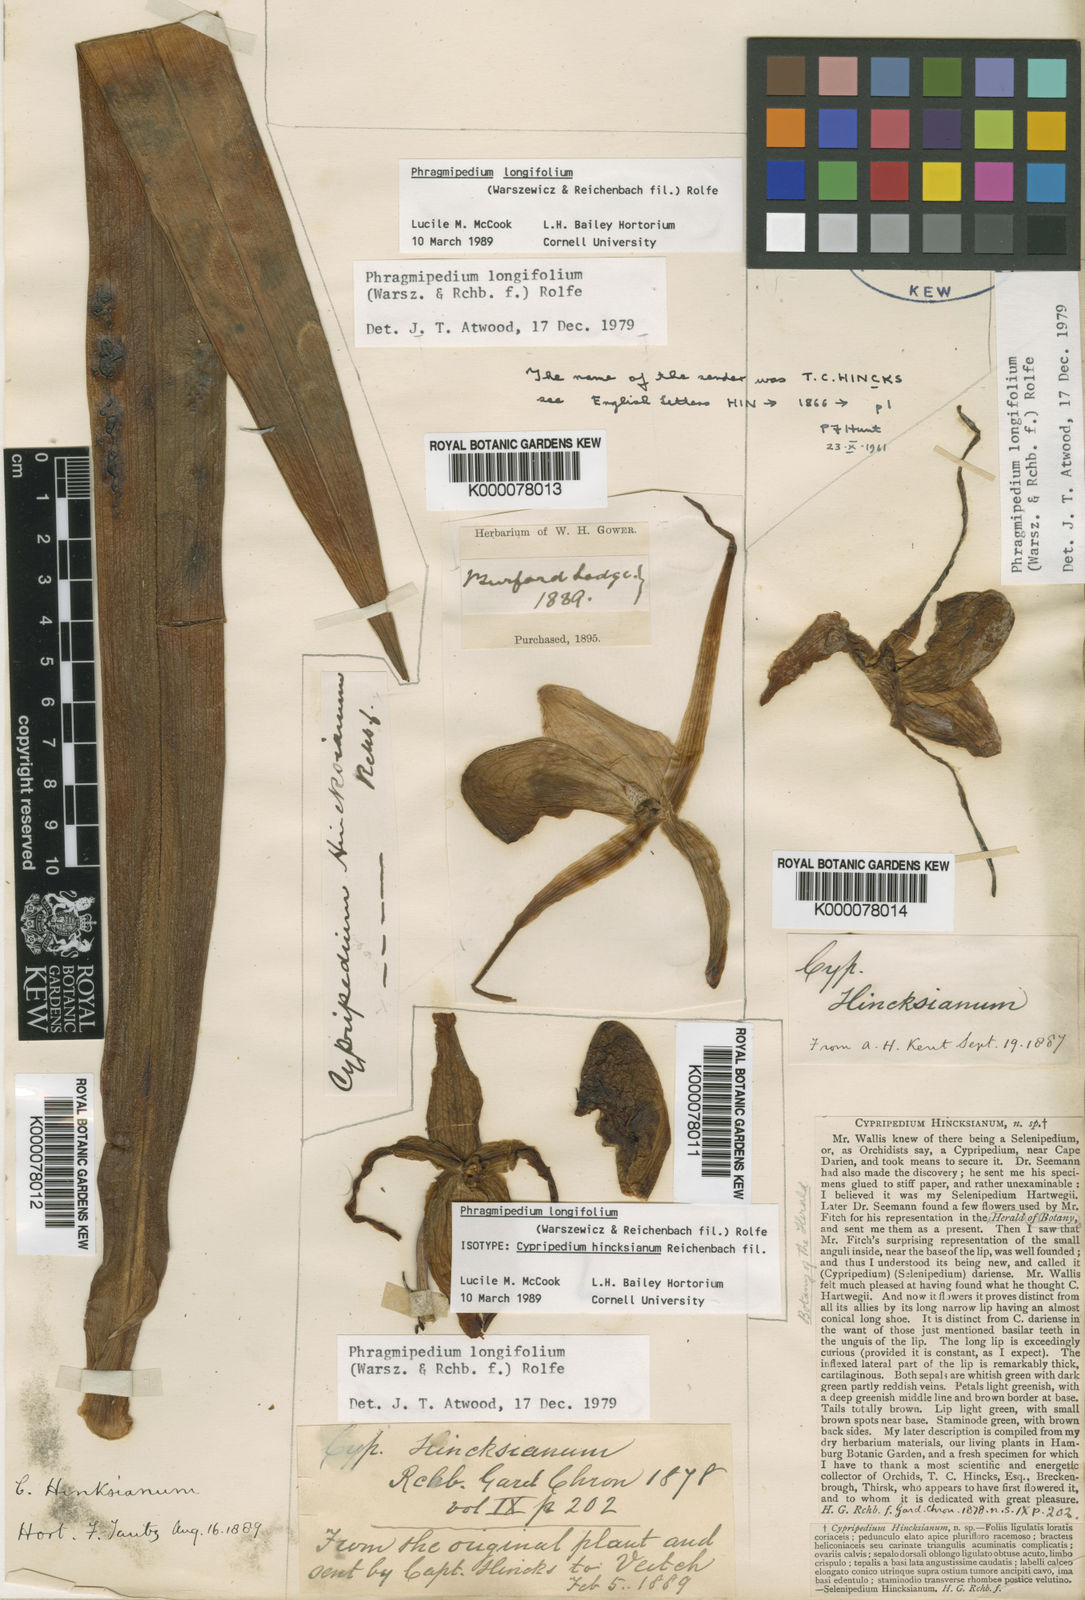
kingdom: Plantae
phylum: Tracheophyta
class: Liliopsida
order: Asparagales
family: Orchidaceae
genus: Phragmipedium
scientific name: Phragmipedium longifolium
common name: Long-leaf phragmipedium
